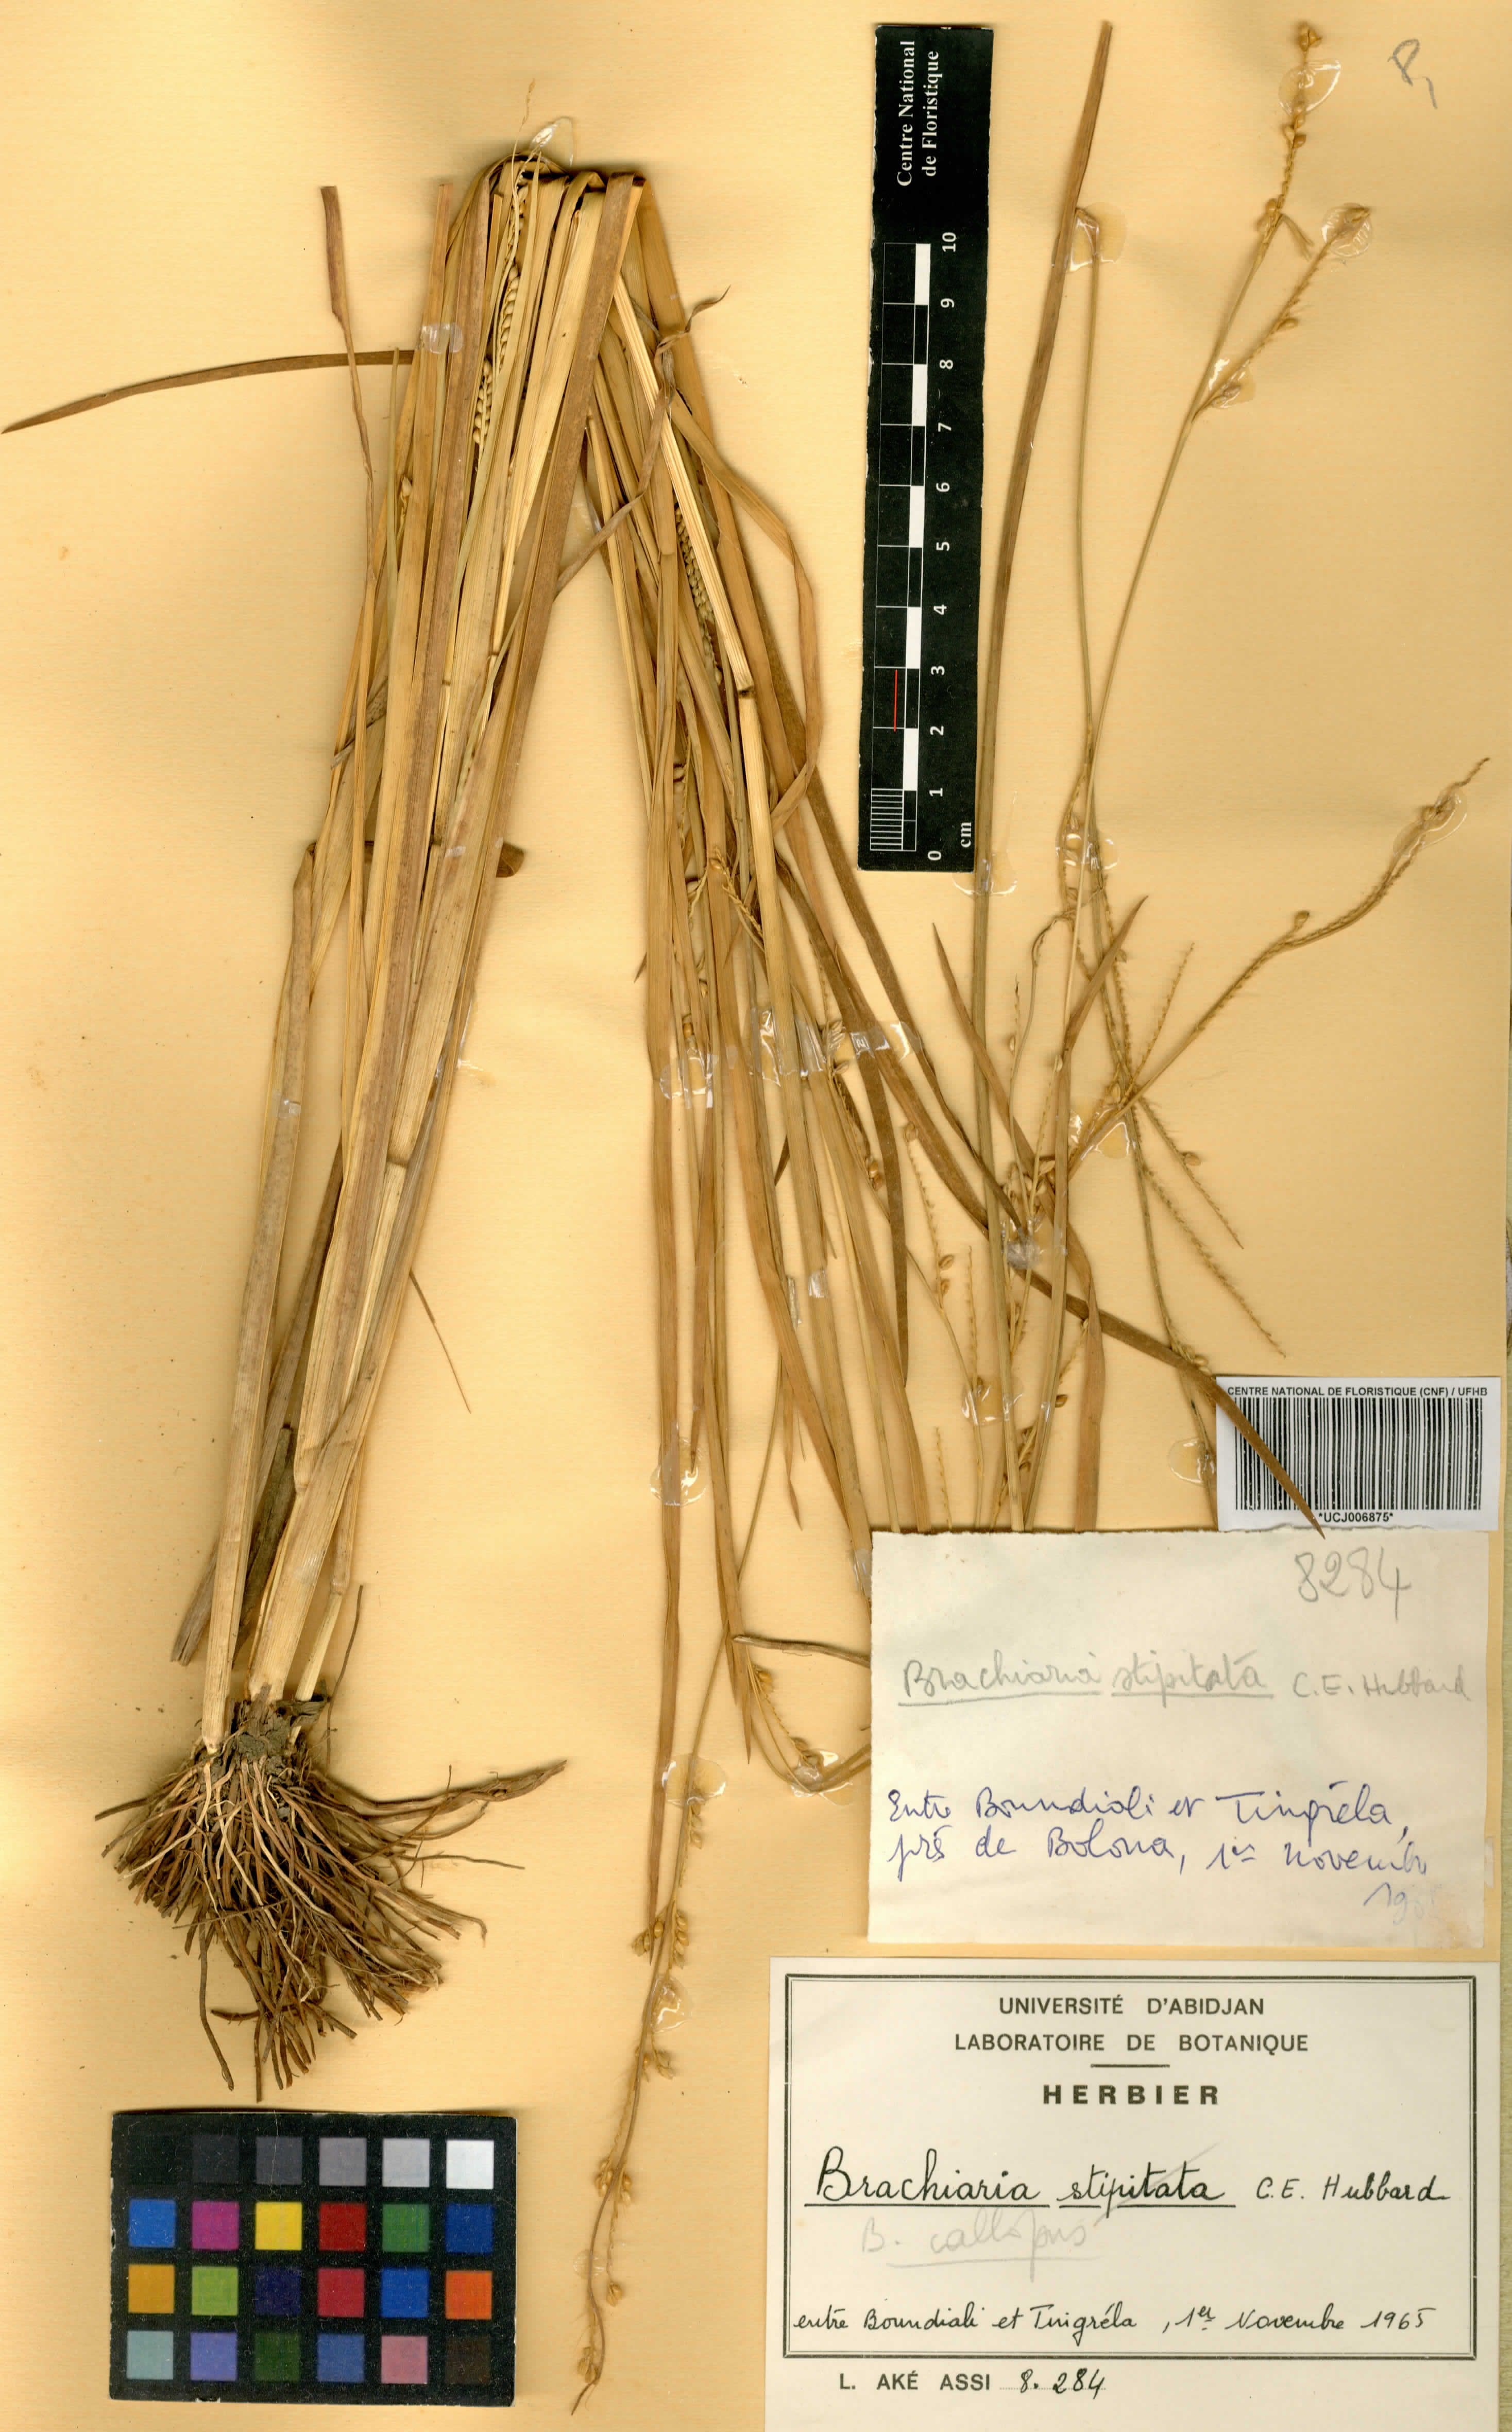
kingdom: Plantae
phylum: Tracheophyta
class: Liliopsida
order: Poales
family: Poaceae
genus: Echinochloa
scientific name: Echinochloa callopus
